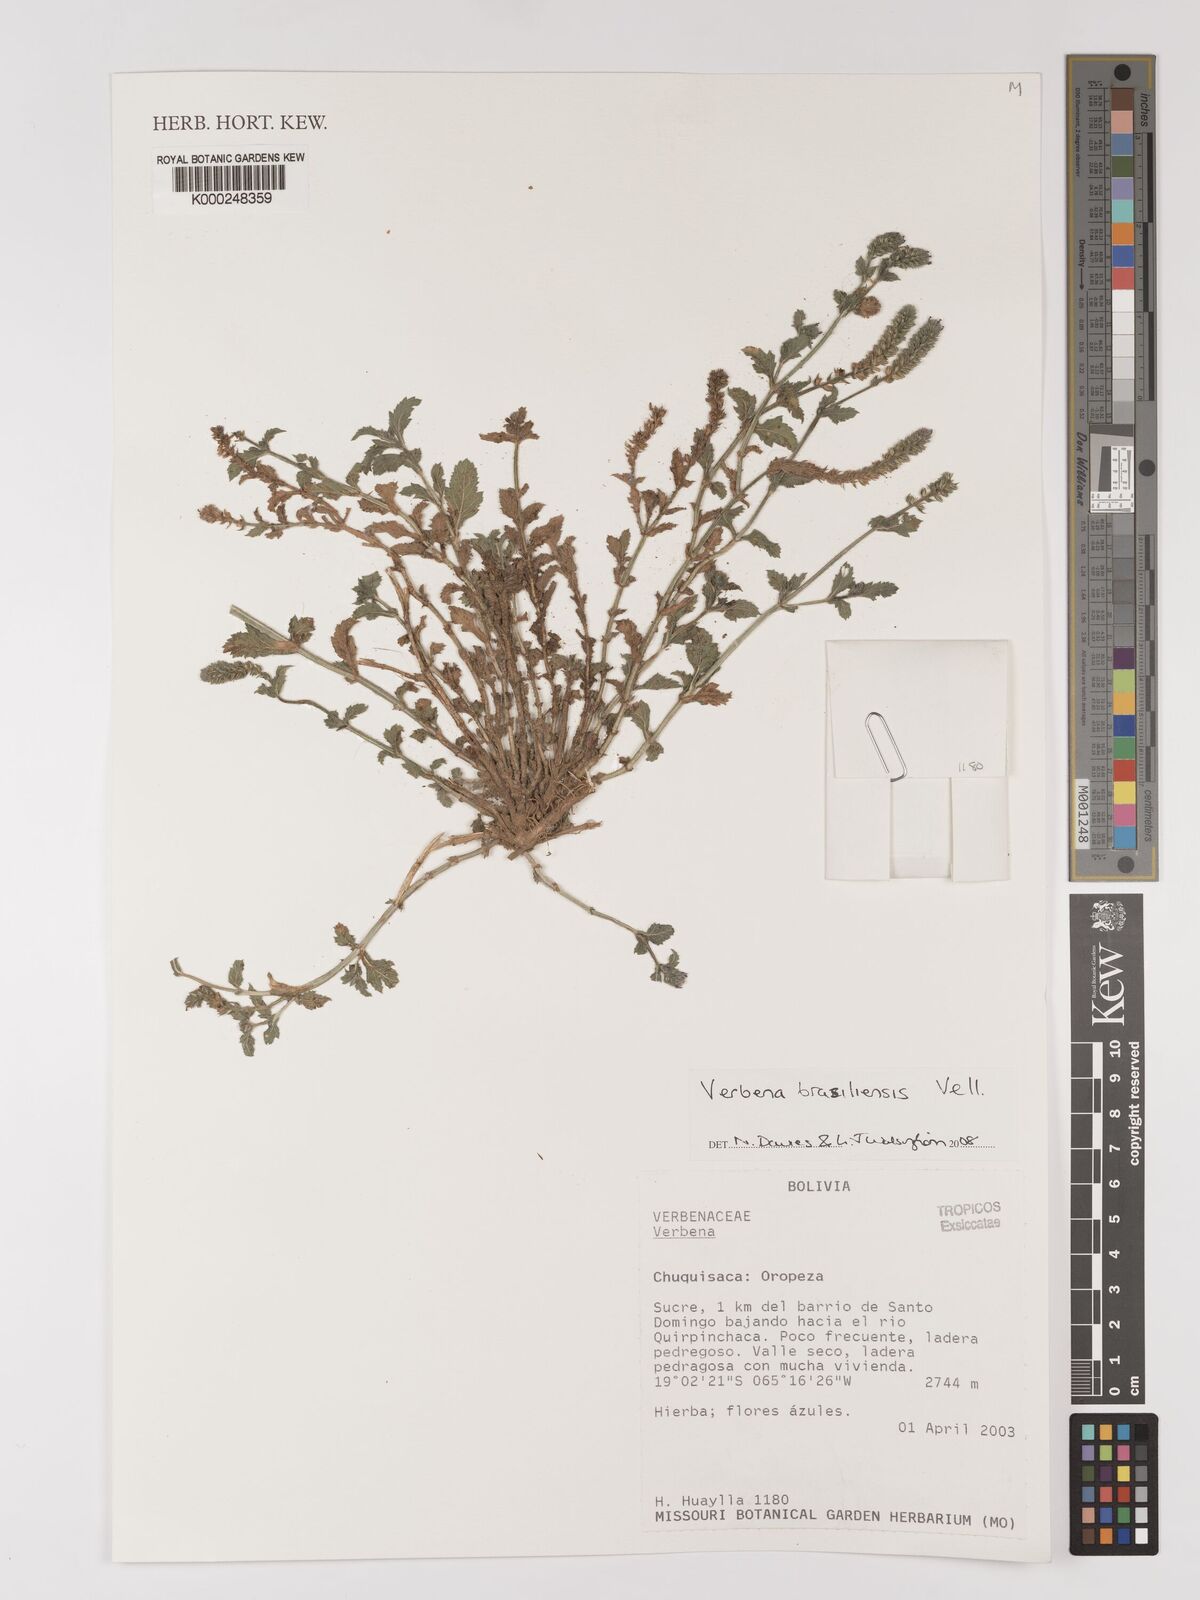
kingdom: Plantae
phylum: Tracheophyta
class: Magnoliopsida
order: Lamiales
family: Verbenaceae
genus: Verbena
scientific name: Verbena
